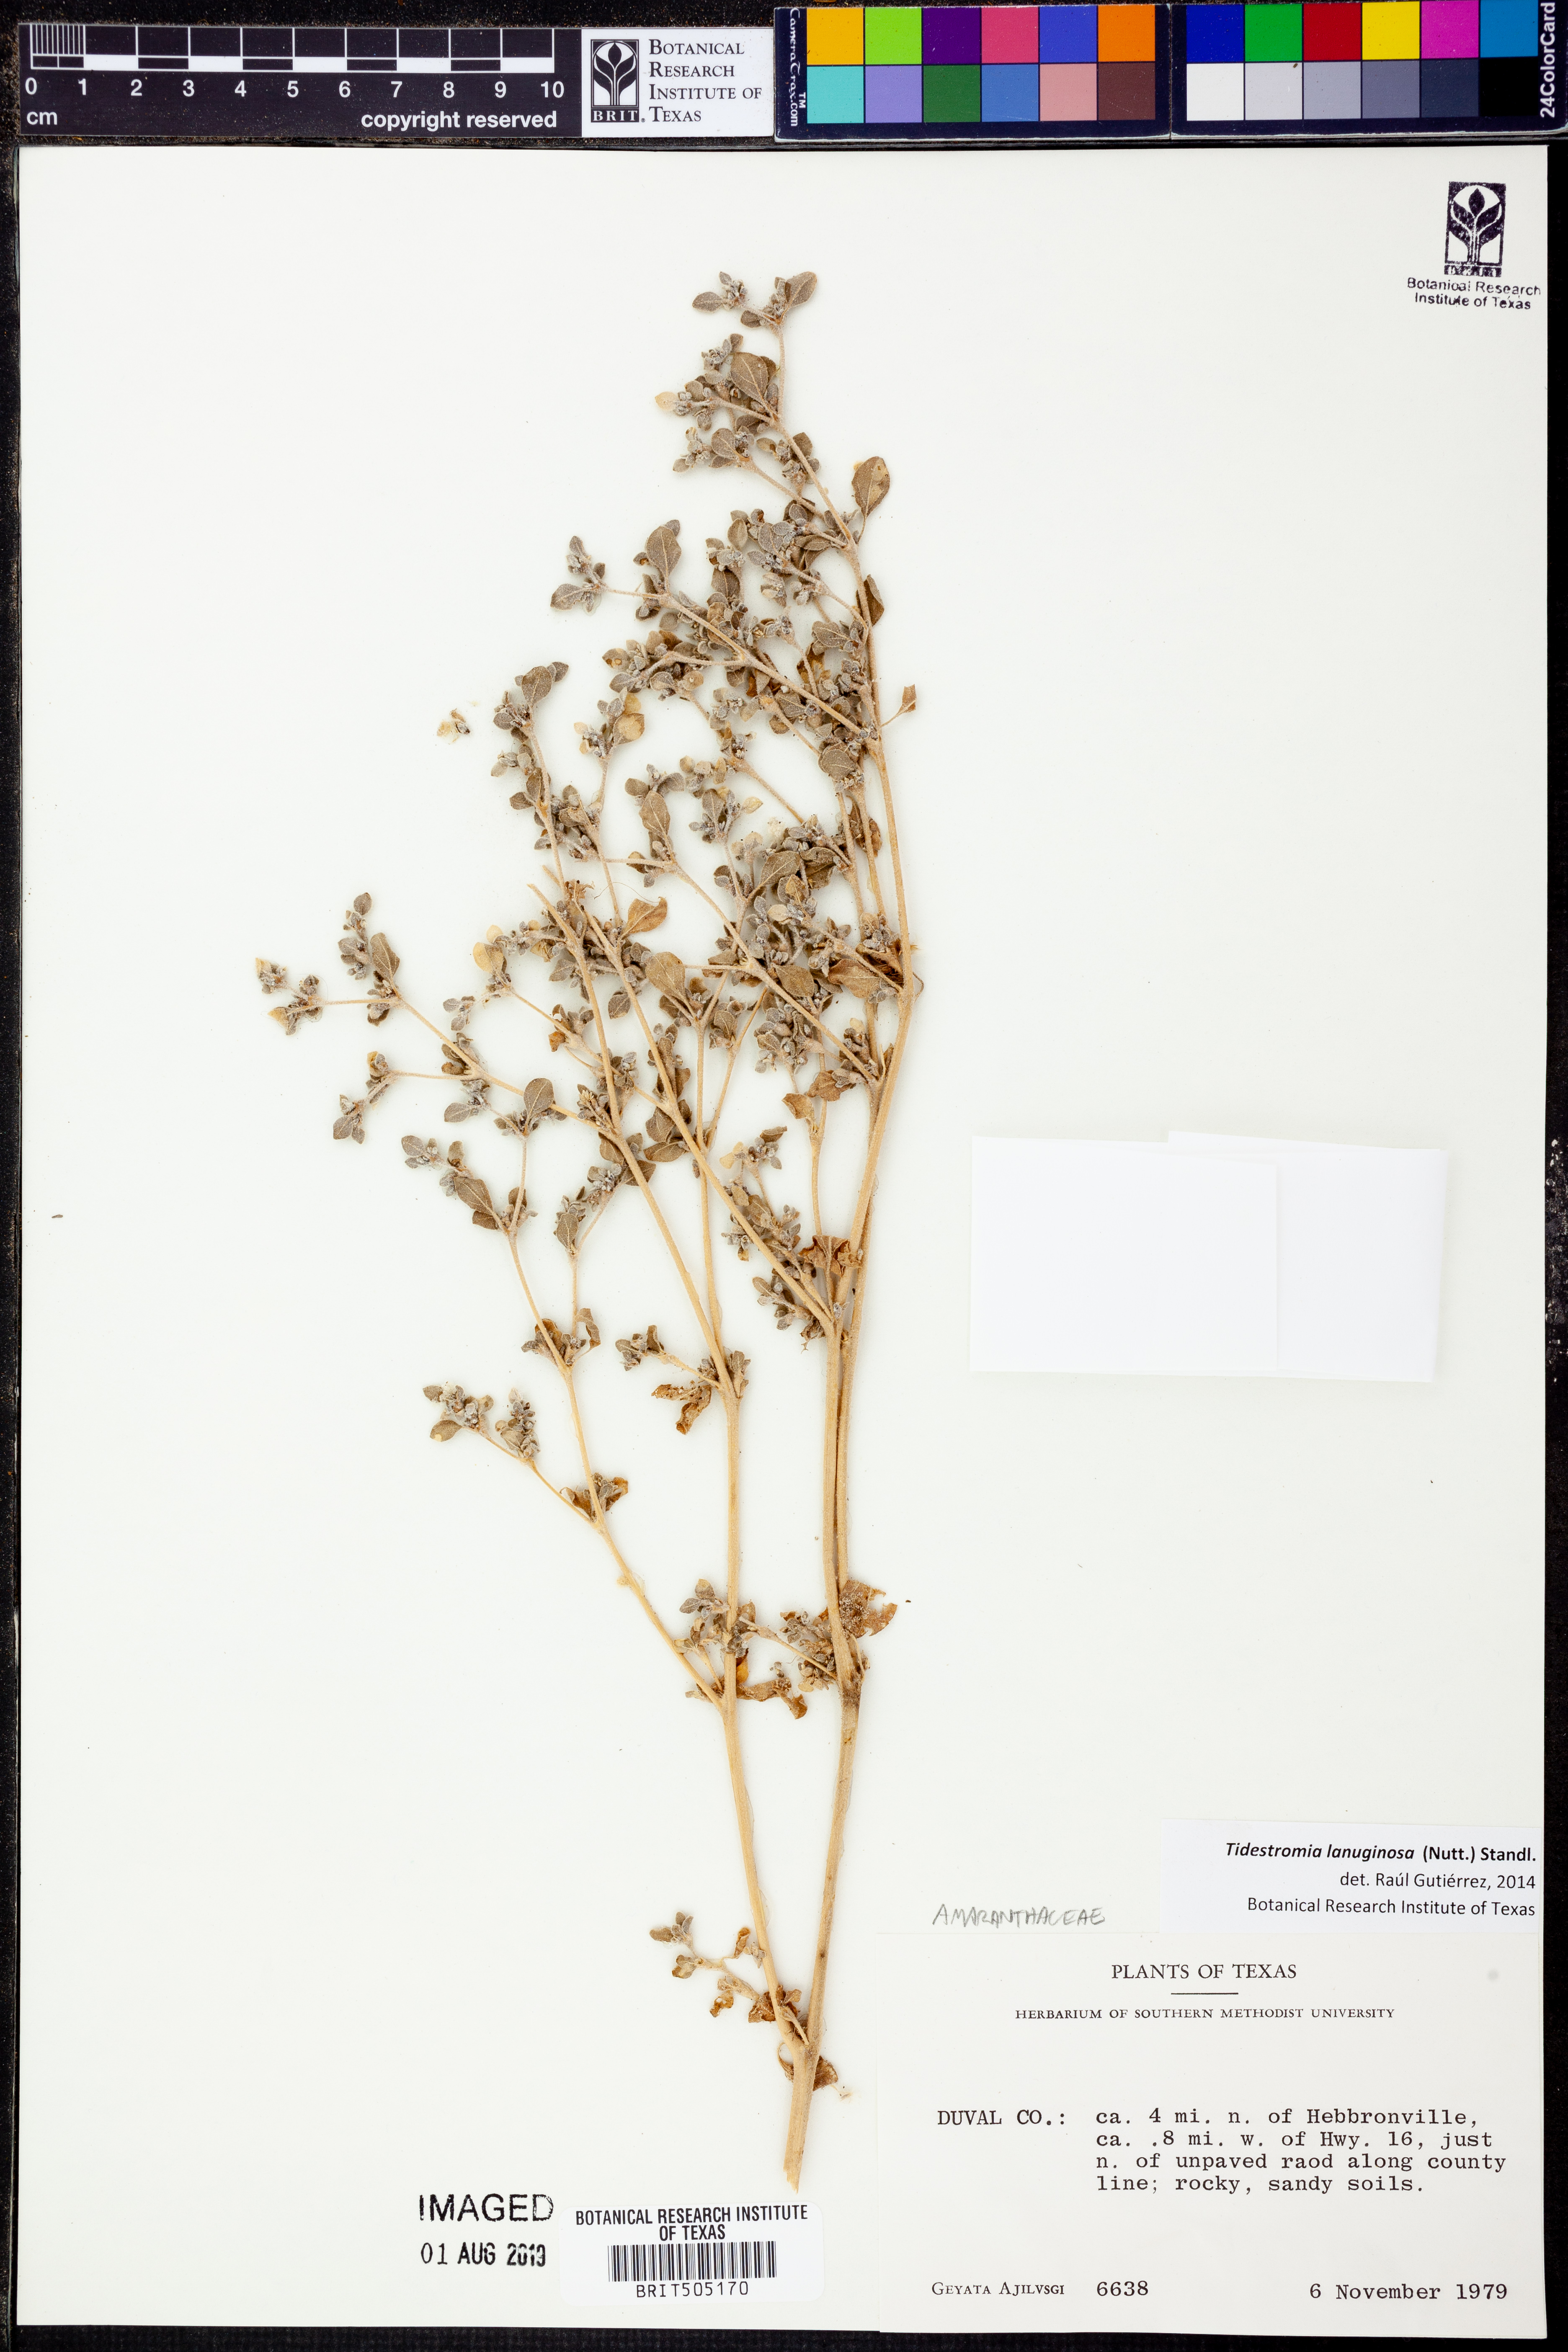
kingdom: Plantae
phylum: Tracheophyta
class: Magnoliopsida
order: Caryophyllales
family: Amaranthaceae
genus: Tidestromia
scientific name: Tidestromia lanuginosa
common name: Woolly tidestromia
